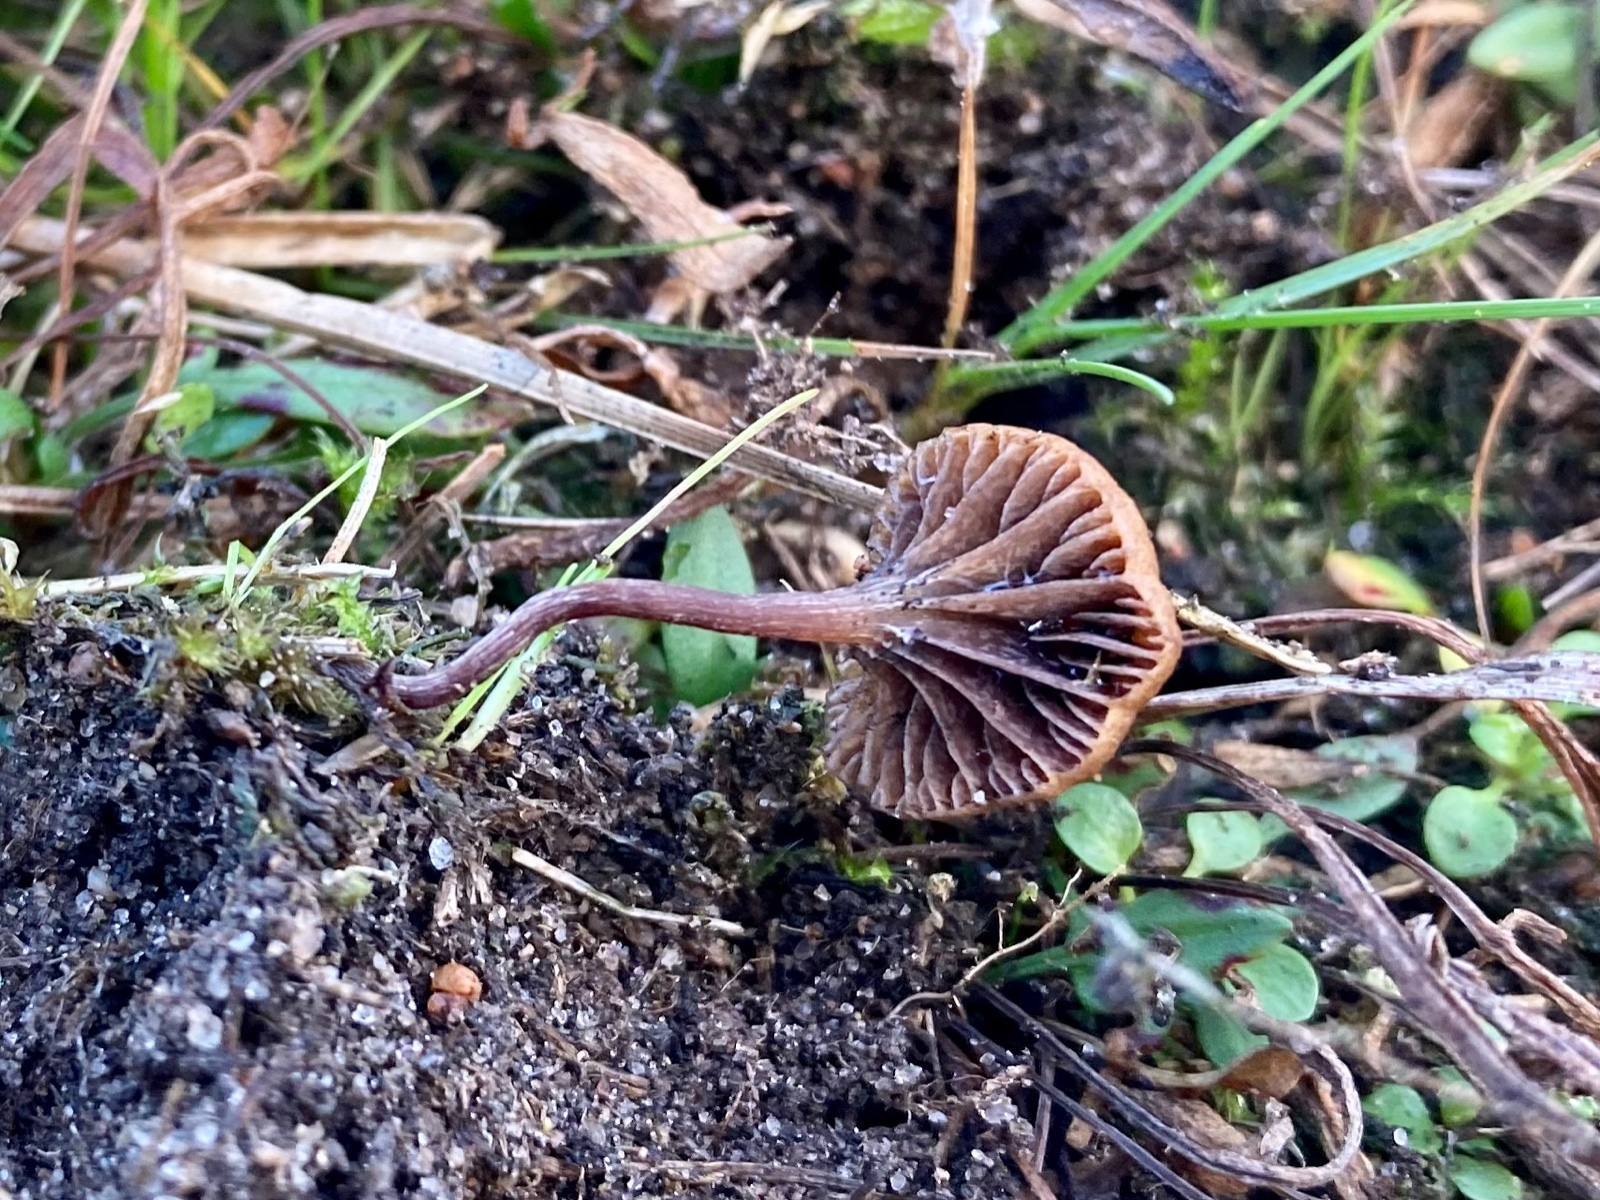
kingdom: Fungi
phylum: Basidiomycota
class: Agaricomycetes
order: Agaricales
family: Strophariaceae
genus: Deconica
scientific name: Deconica
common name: stråhat
